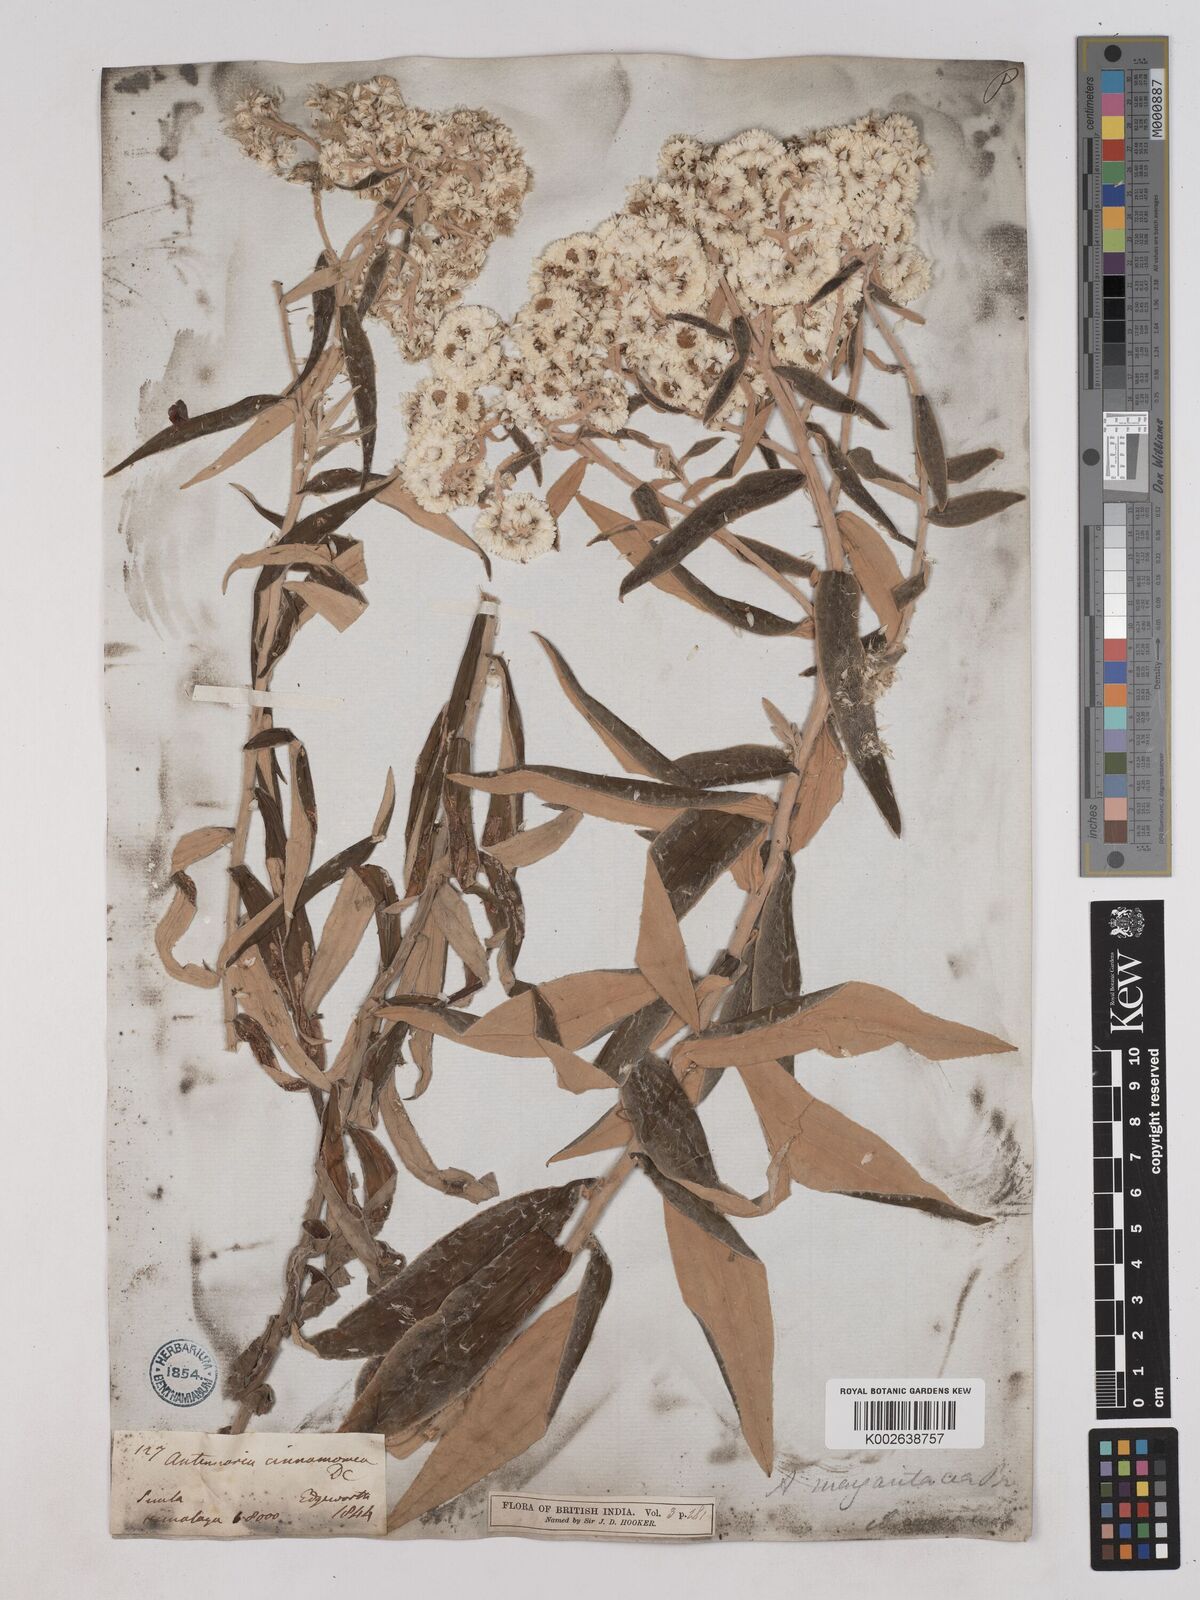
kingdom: Plantae
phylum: Tracheophyta
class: Magnoliopsida
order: Asterales
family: Asteraceae
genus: Anaphalis
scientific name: Anaphalis marcescens
